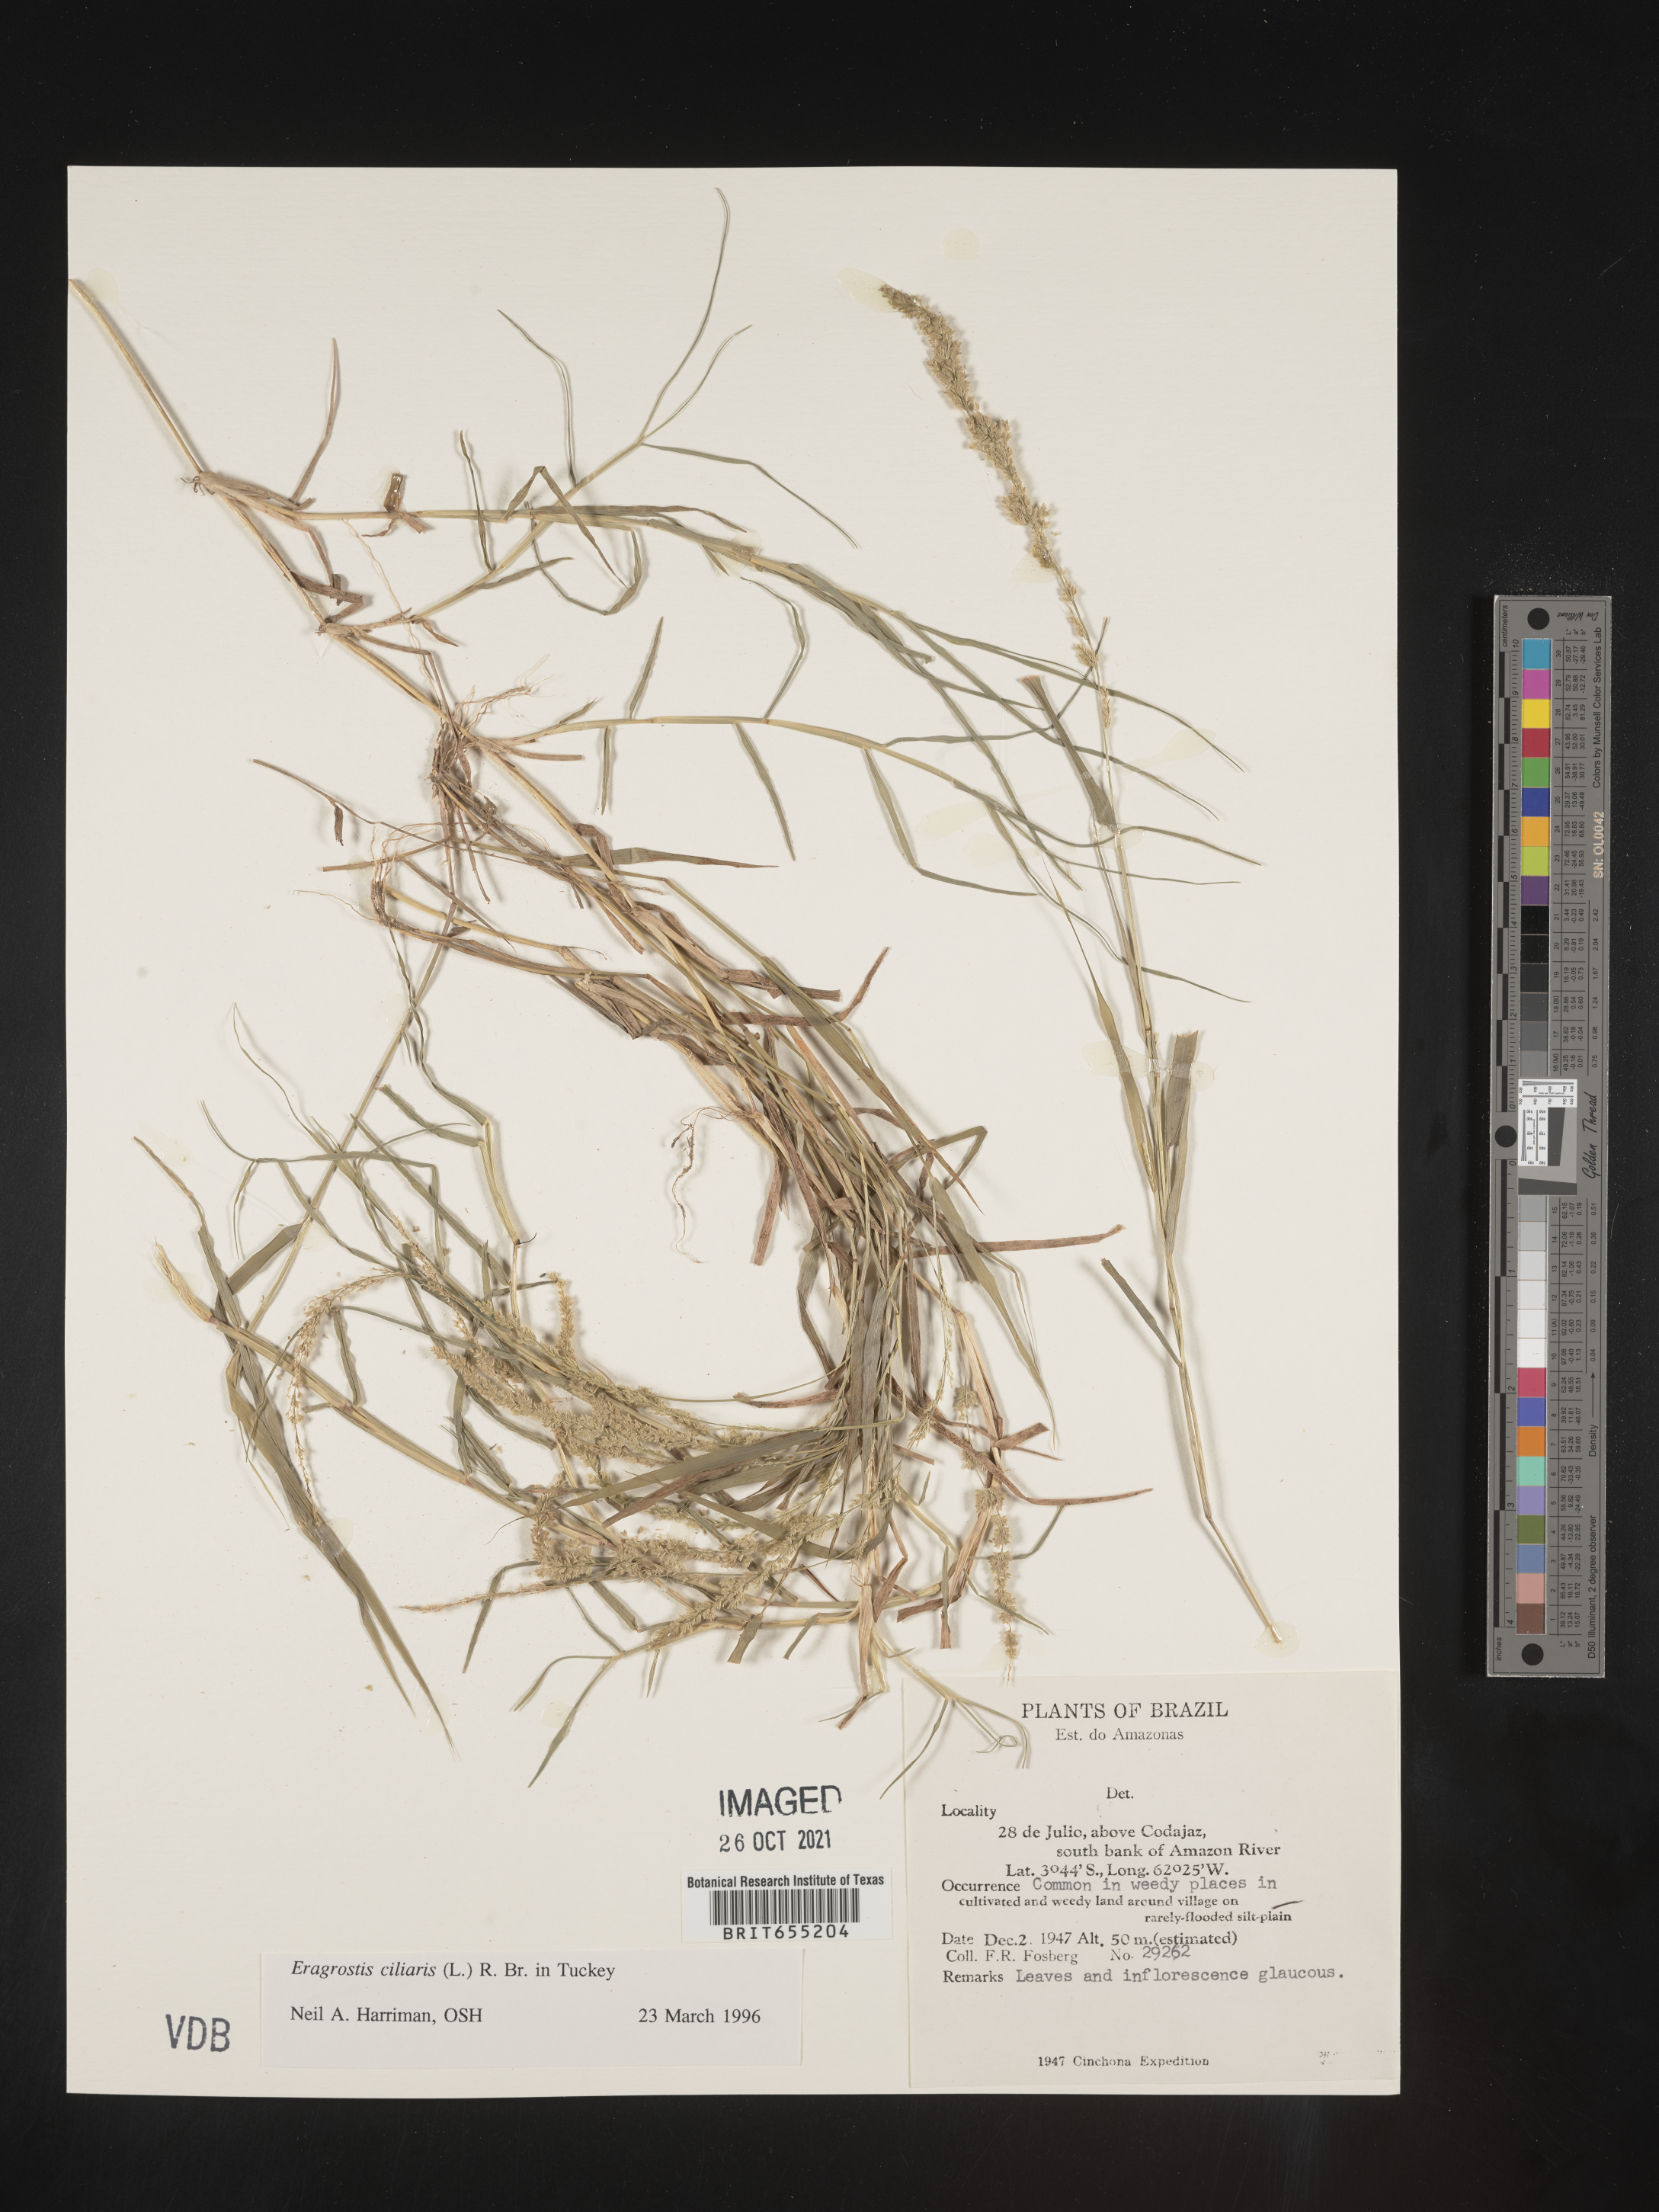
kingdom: Plantae
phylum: Tracheophyta
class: Liliopsida
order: Poales
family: Poaceae
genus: Eragrostis
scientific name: Eragrostis
